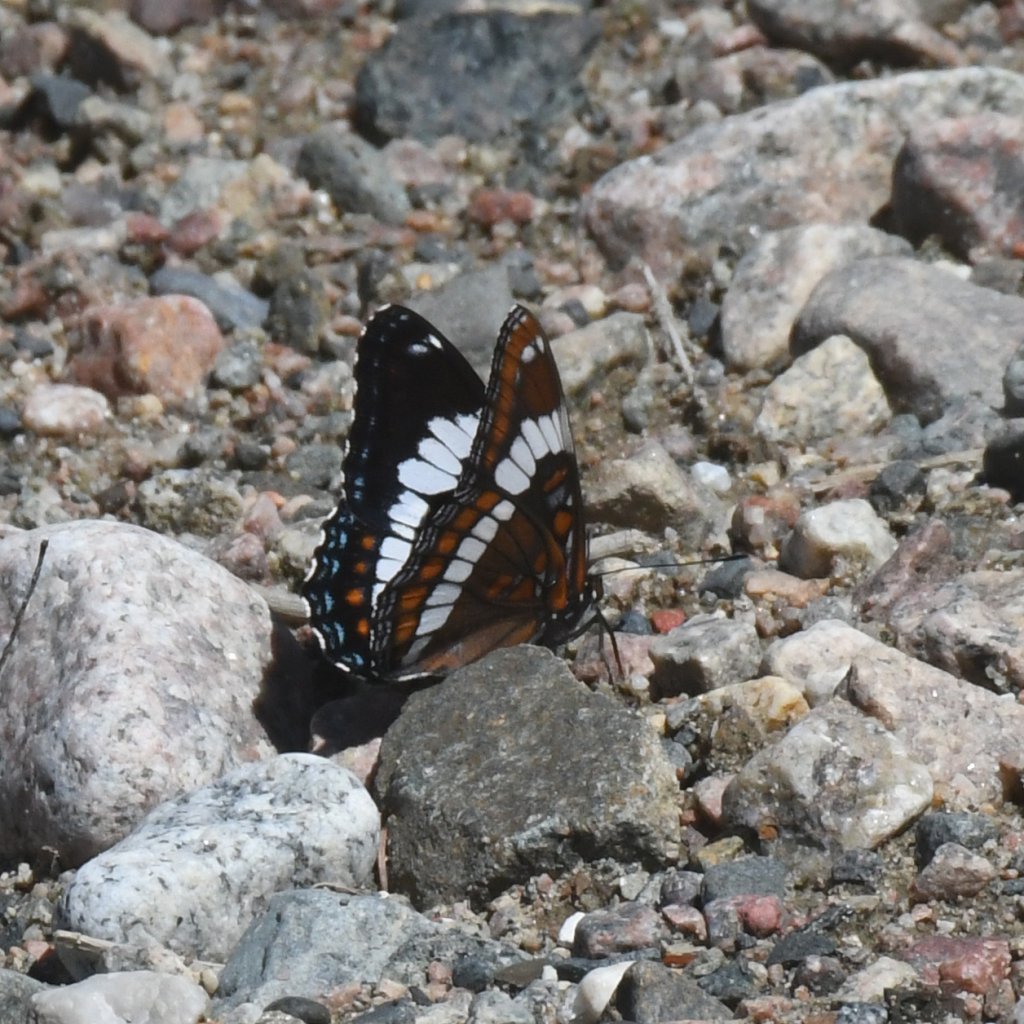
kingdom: Animalia
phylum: Arthropoda
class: Insecta
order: Lepidoptera
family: Nymphalidae
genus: Limenitis
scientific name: Limenitis arthemis
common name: Red-spotted Admiral
